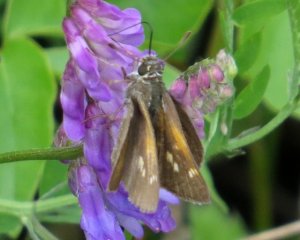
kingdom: Animalia
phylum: Arthropoda
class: Insecta
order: Lepidoptera
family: Hesperiidae
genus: Polites
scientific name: Polites themistocles
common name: Tawny-edged Skipper
